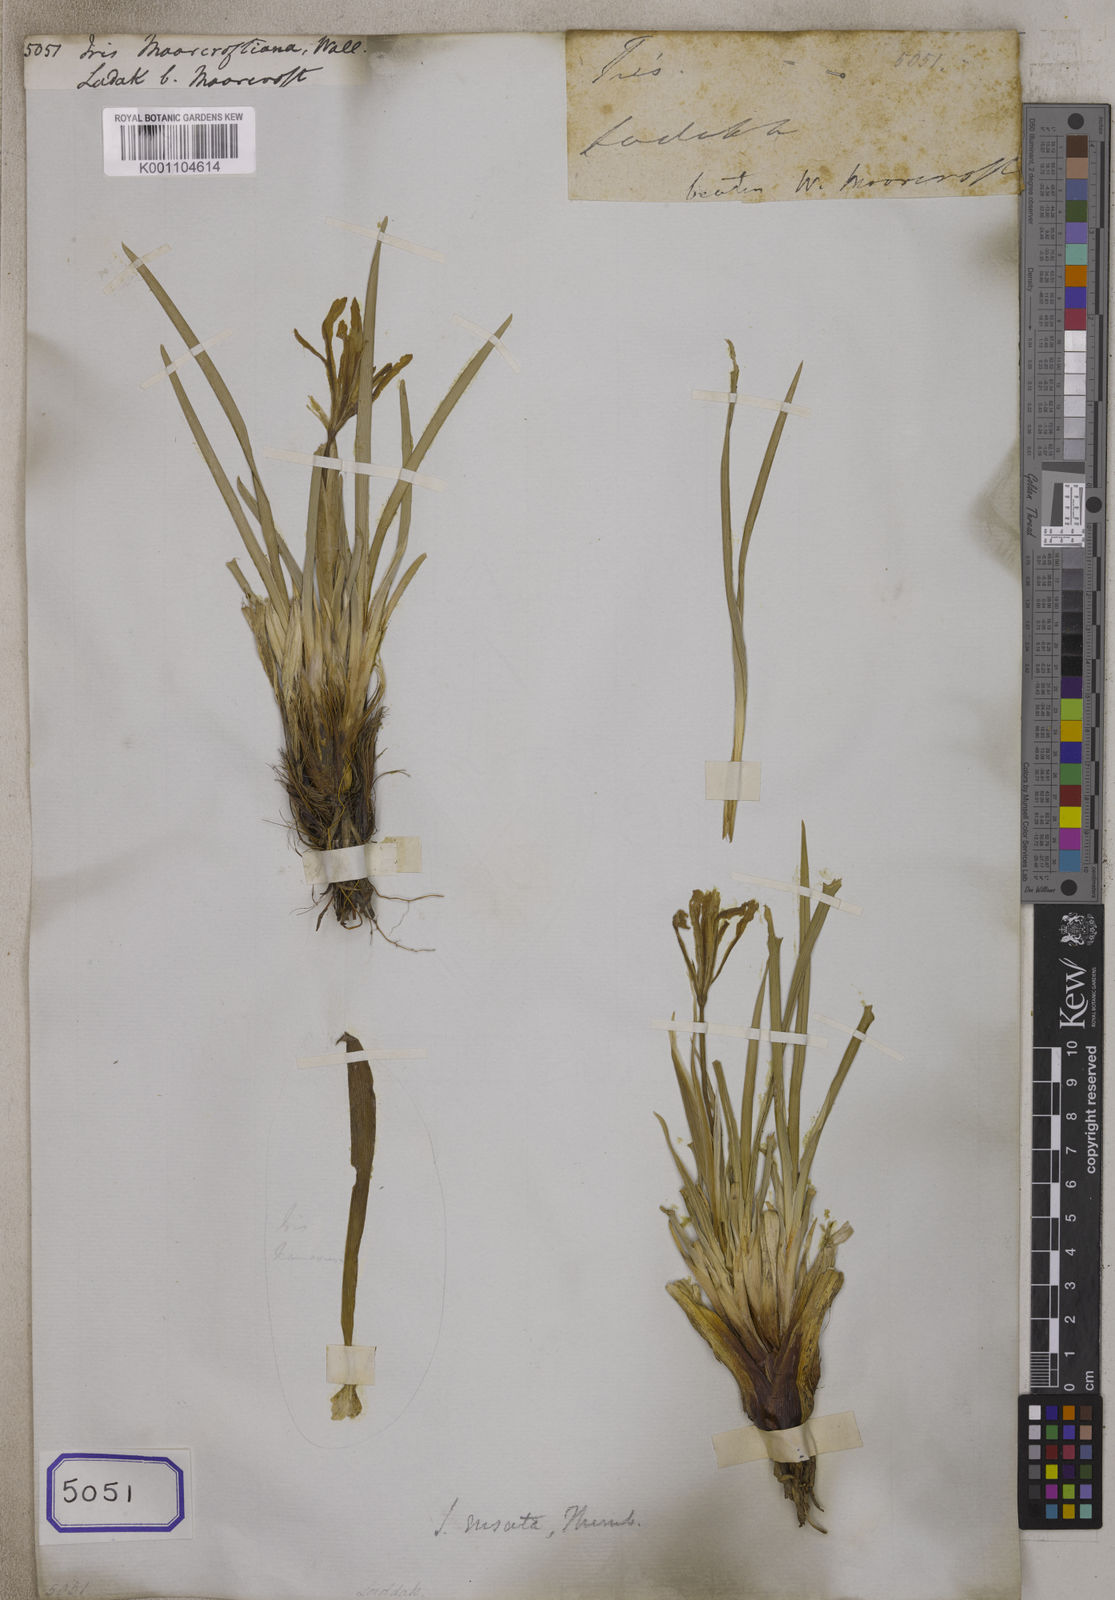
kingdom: Plantae
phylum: Tracheophyta
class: Liliopsida
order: Asparagales
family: Iridaceae
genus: Iris
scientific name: Iris
